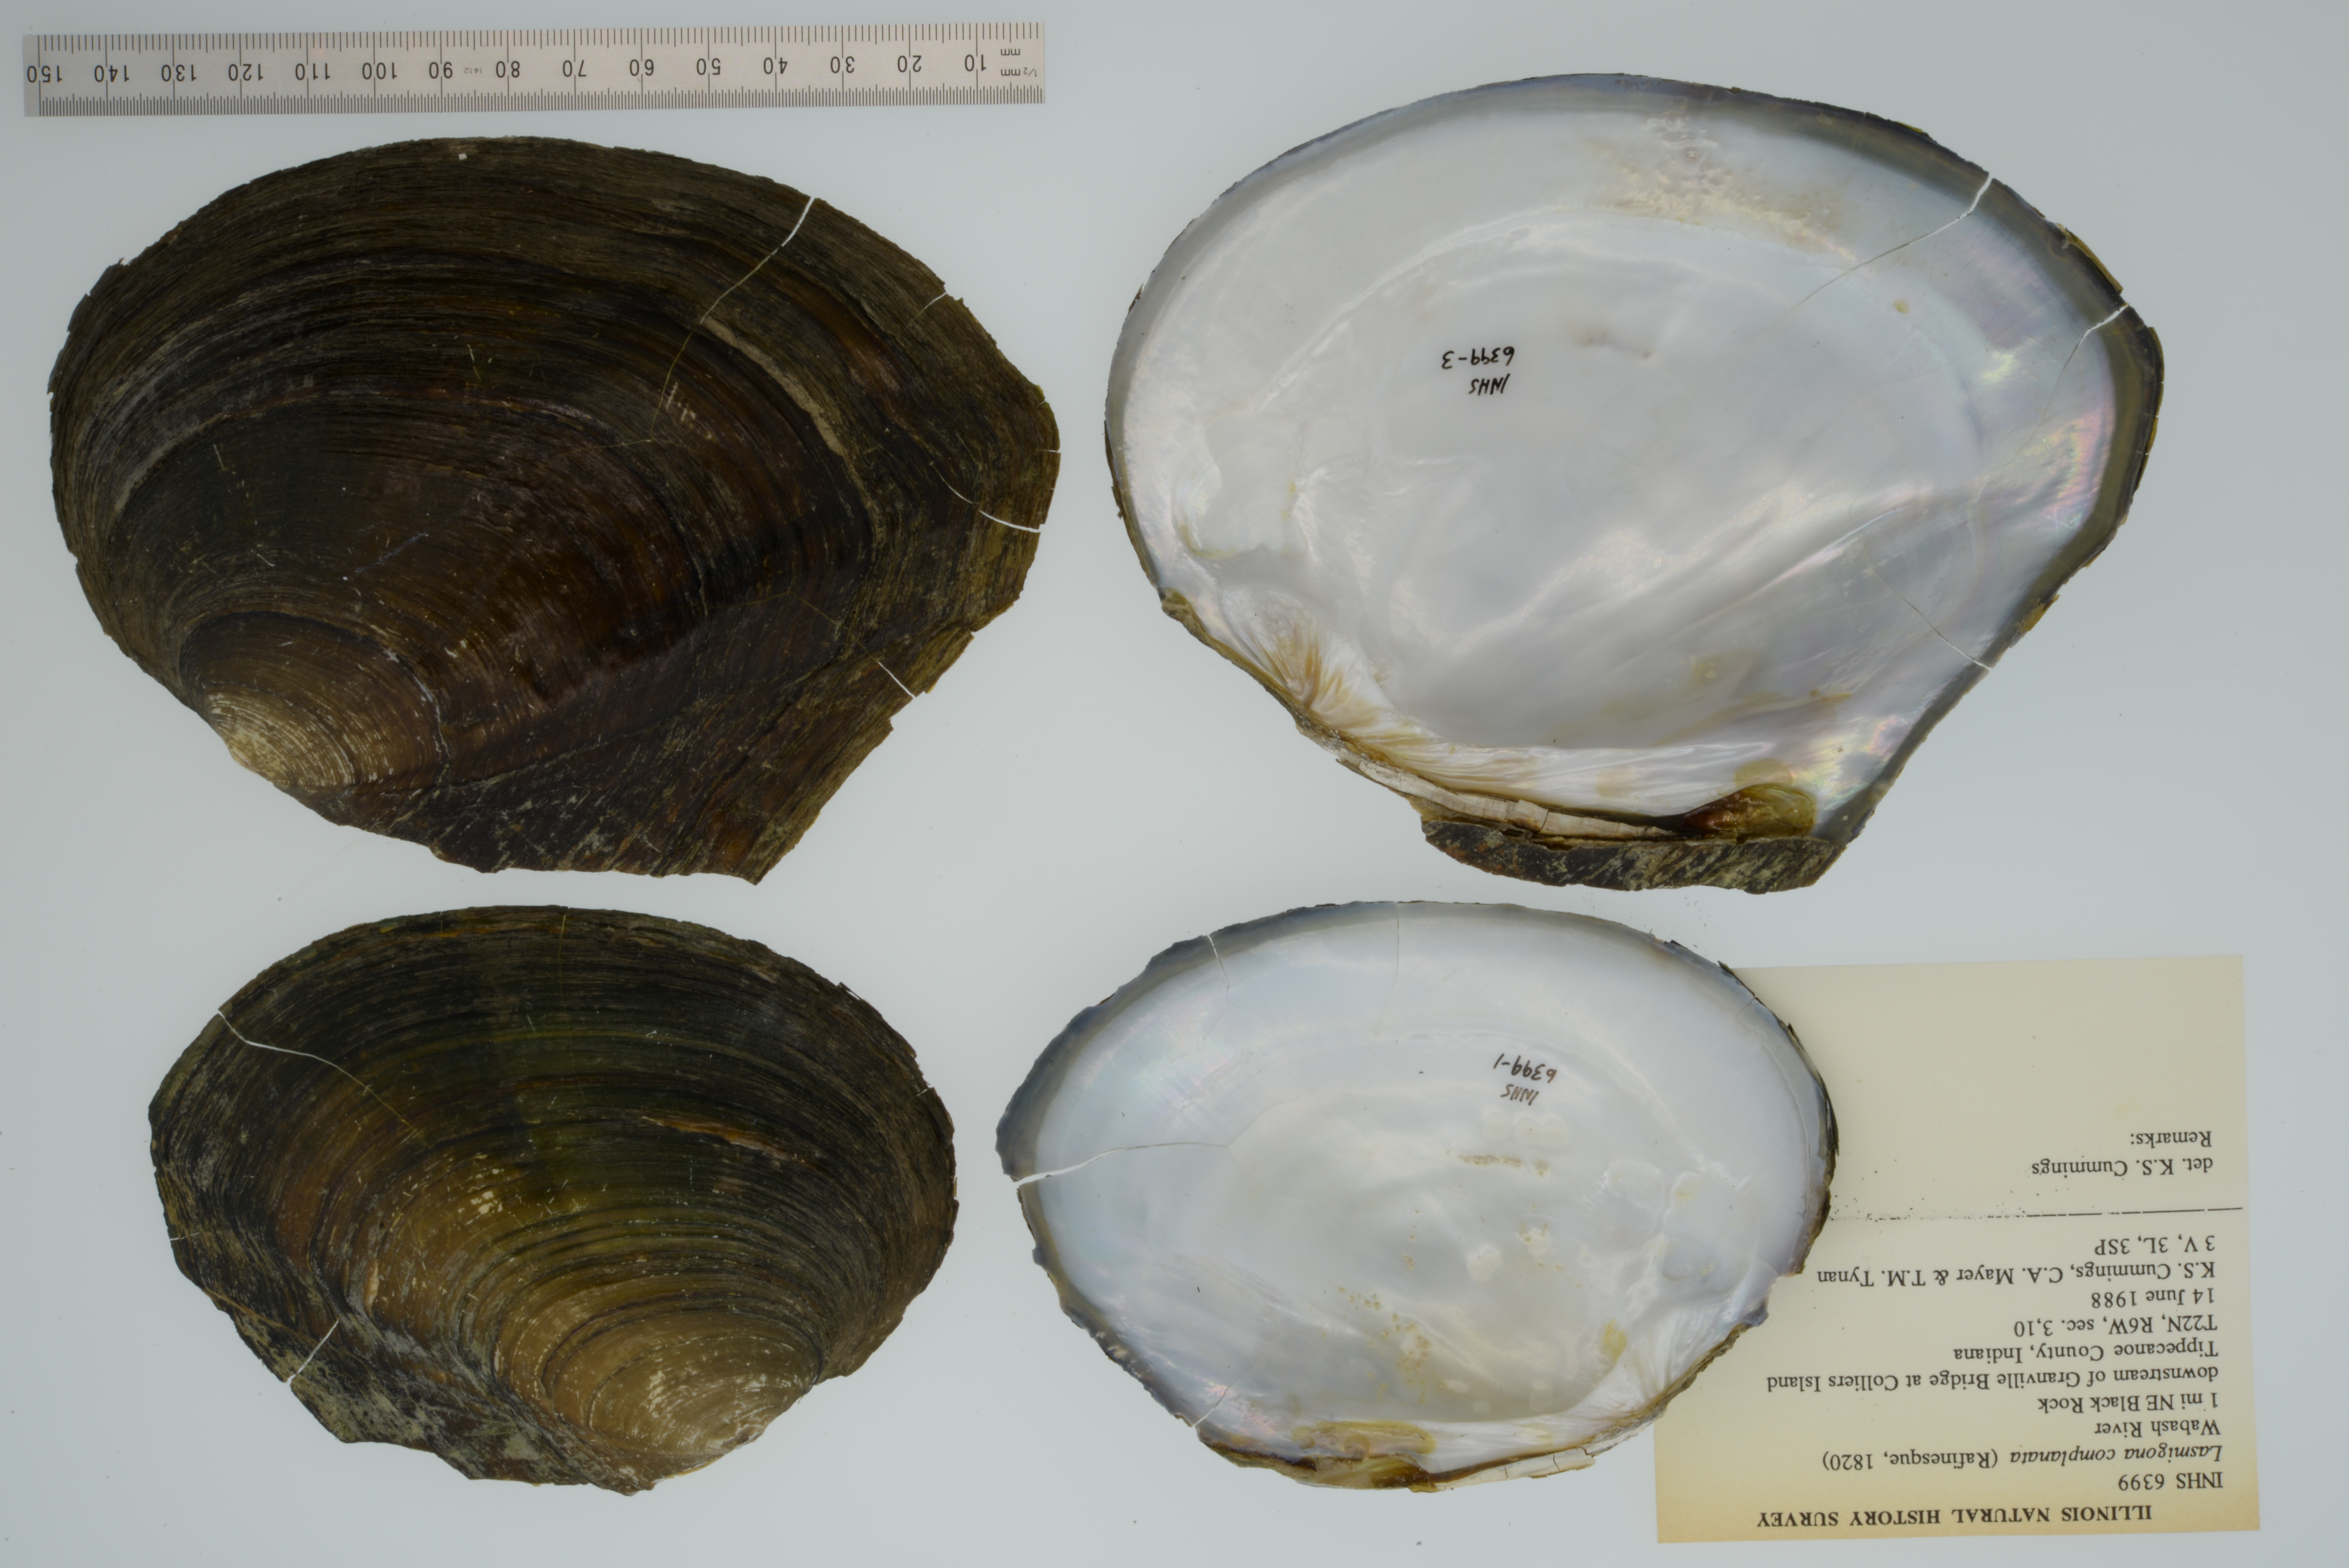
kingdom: Animalia
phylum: Mollusca
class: Bivalvia
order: Unionida
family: Unionidae
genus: Lasmigona
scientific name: Lasmigona complanata
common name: White heelsplitter
